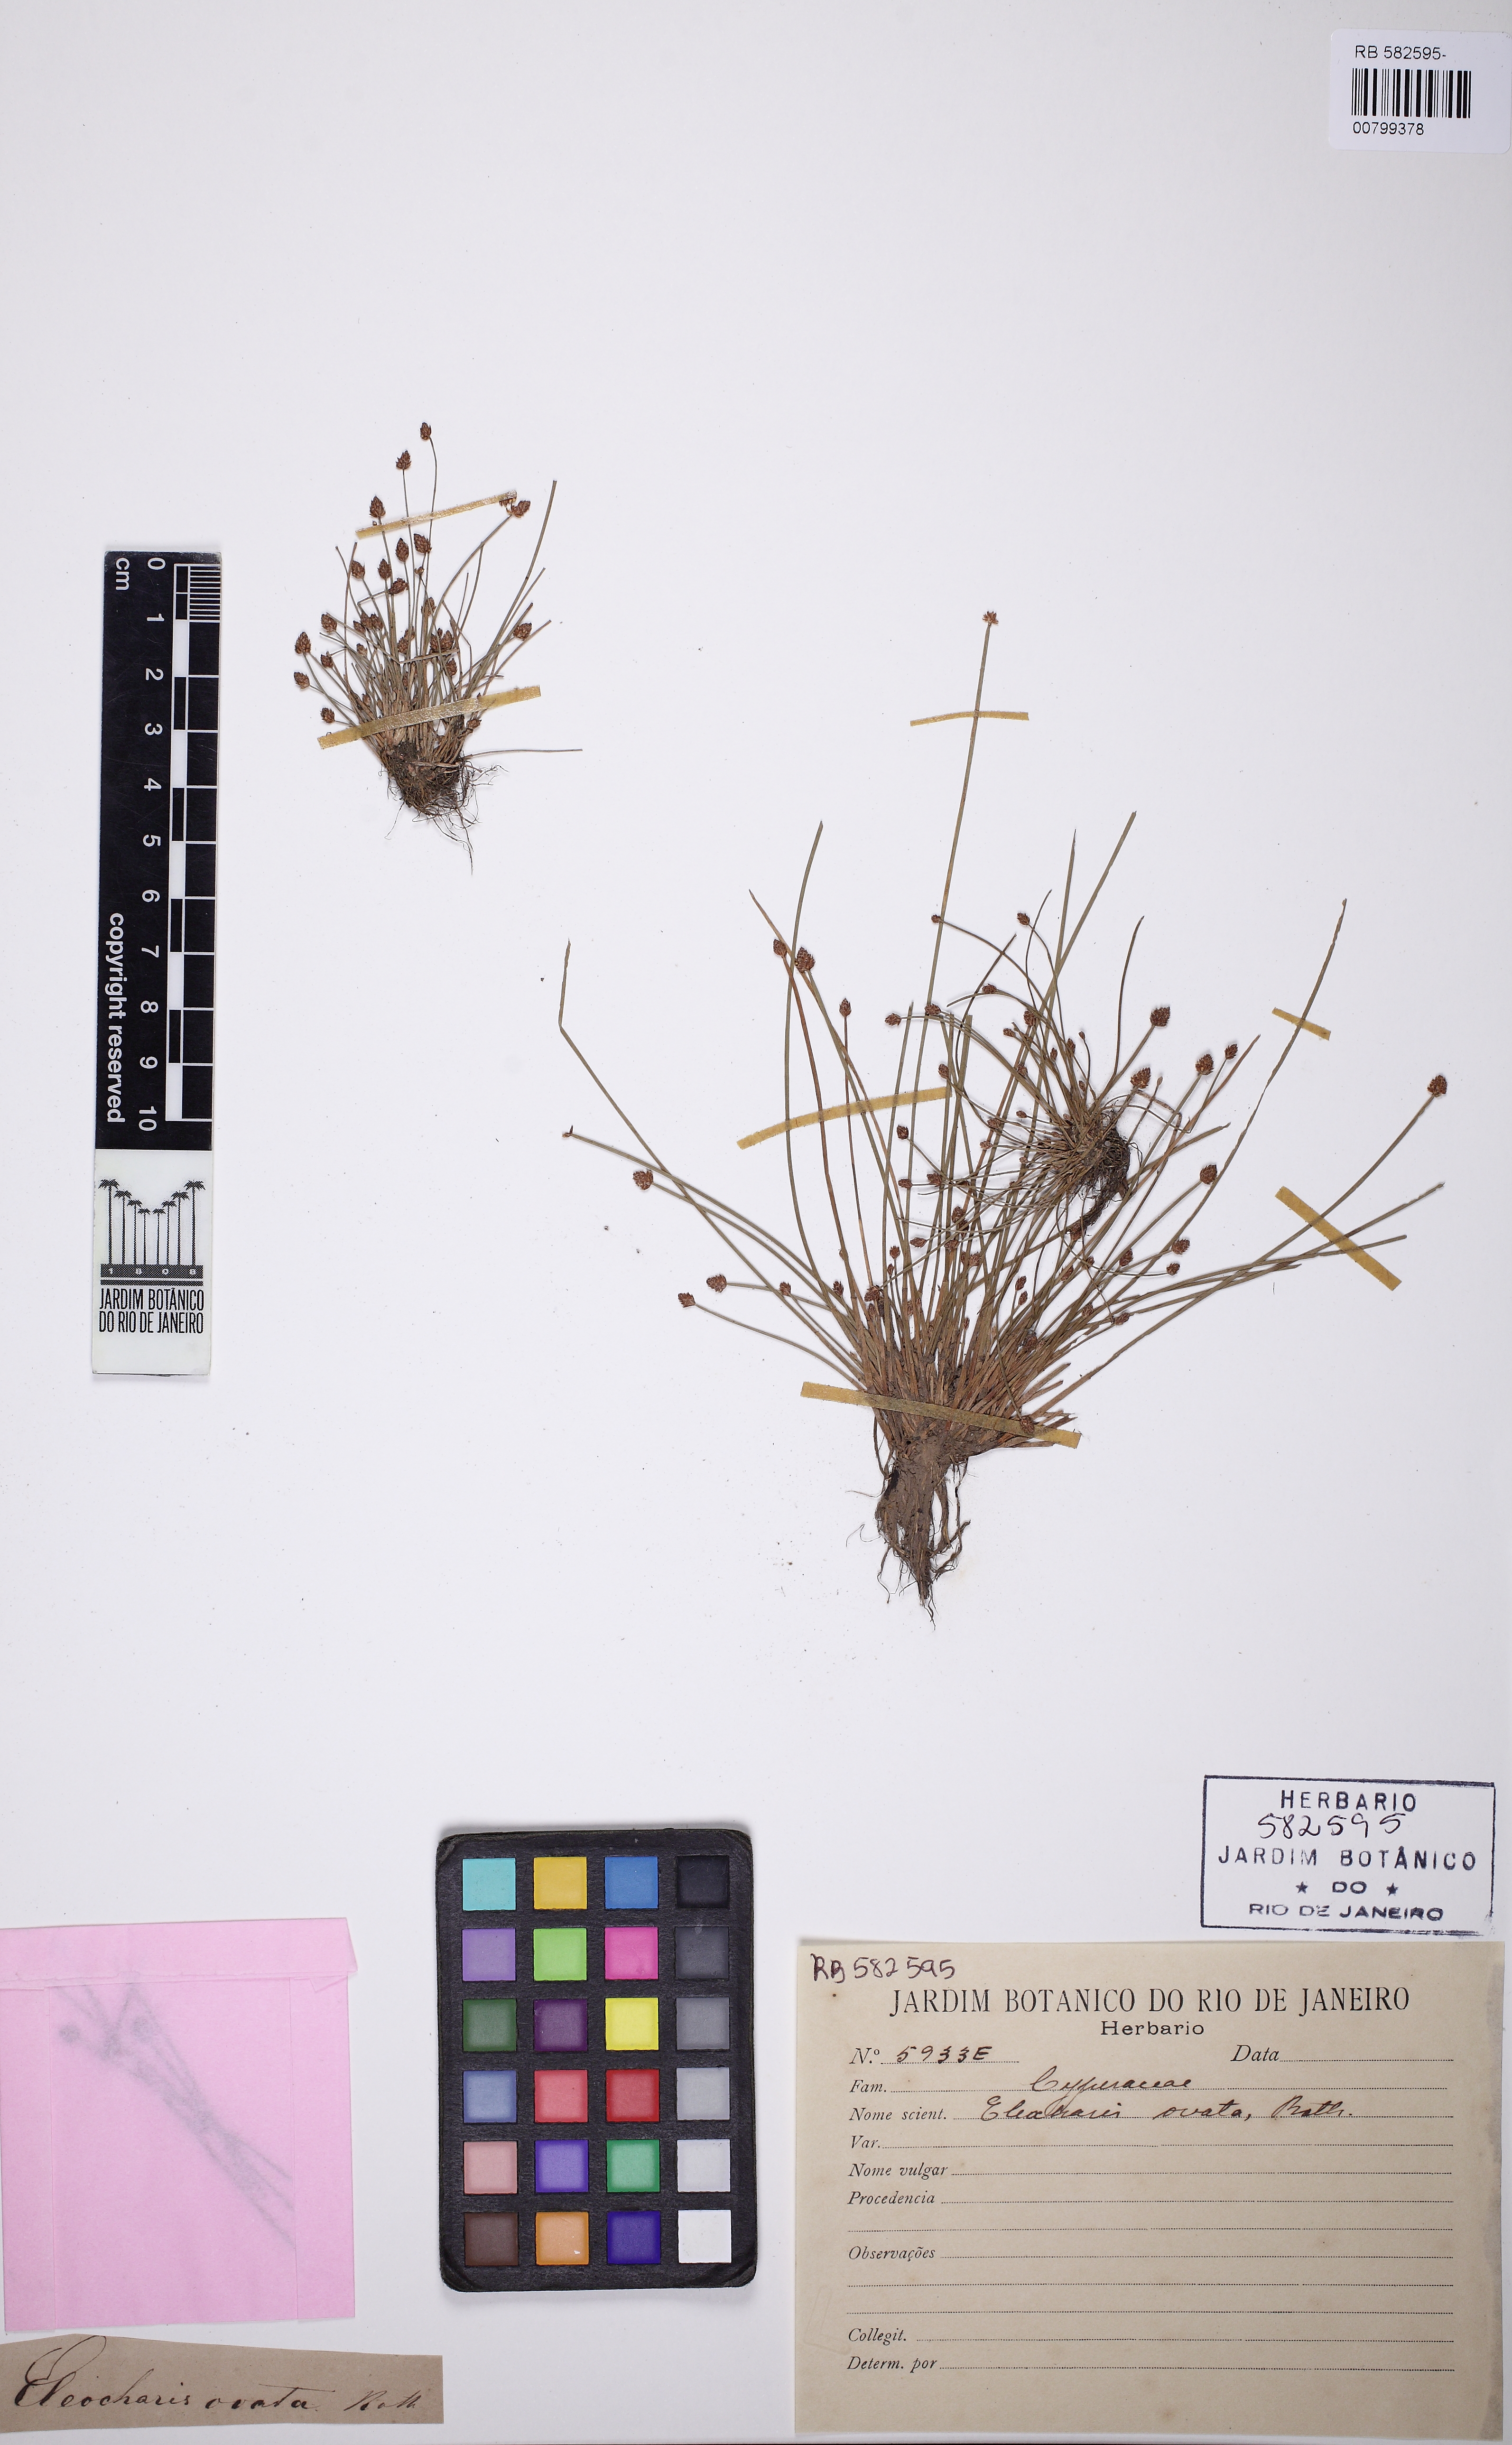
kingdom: Plantae
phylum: Tracheophyta
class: Liliopsida
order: Poales
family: Cyperaceae
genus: Eleocharis
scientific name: Eleocharis ovata
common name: Oval spike-rush
